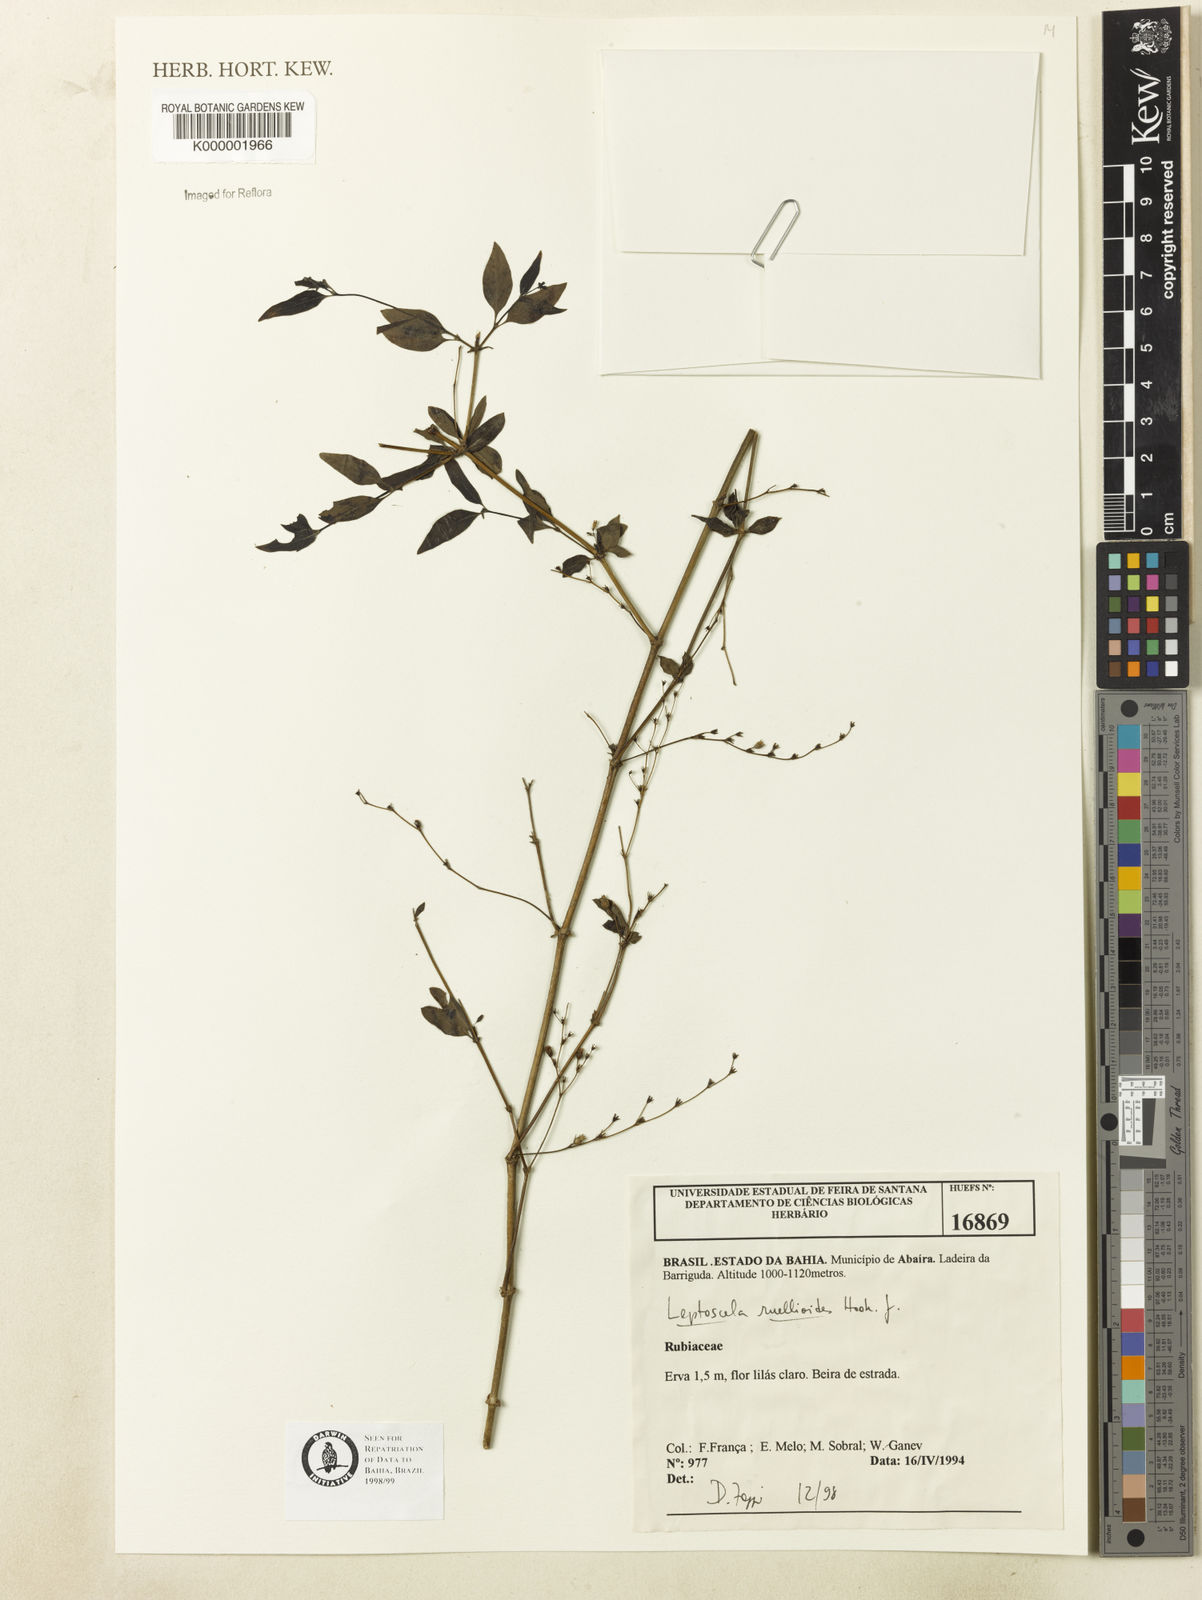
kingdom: Plantae
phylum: Tracheophyta
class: Magnoliopsida
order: Gentianales
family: Rubiaceae
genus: Leptoscela
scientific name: Leptoscela
